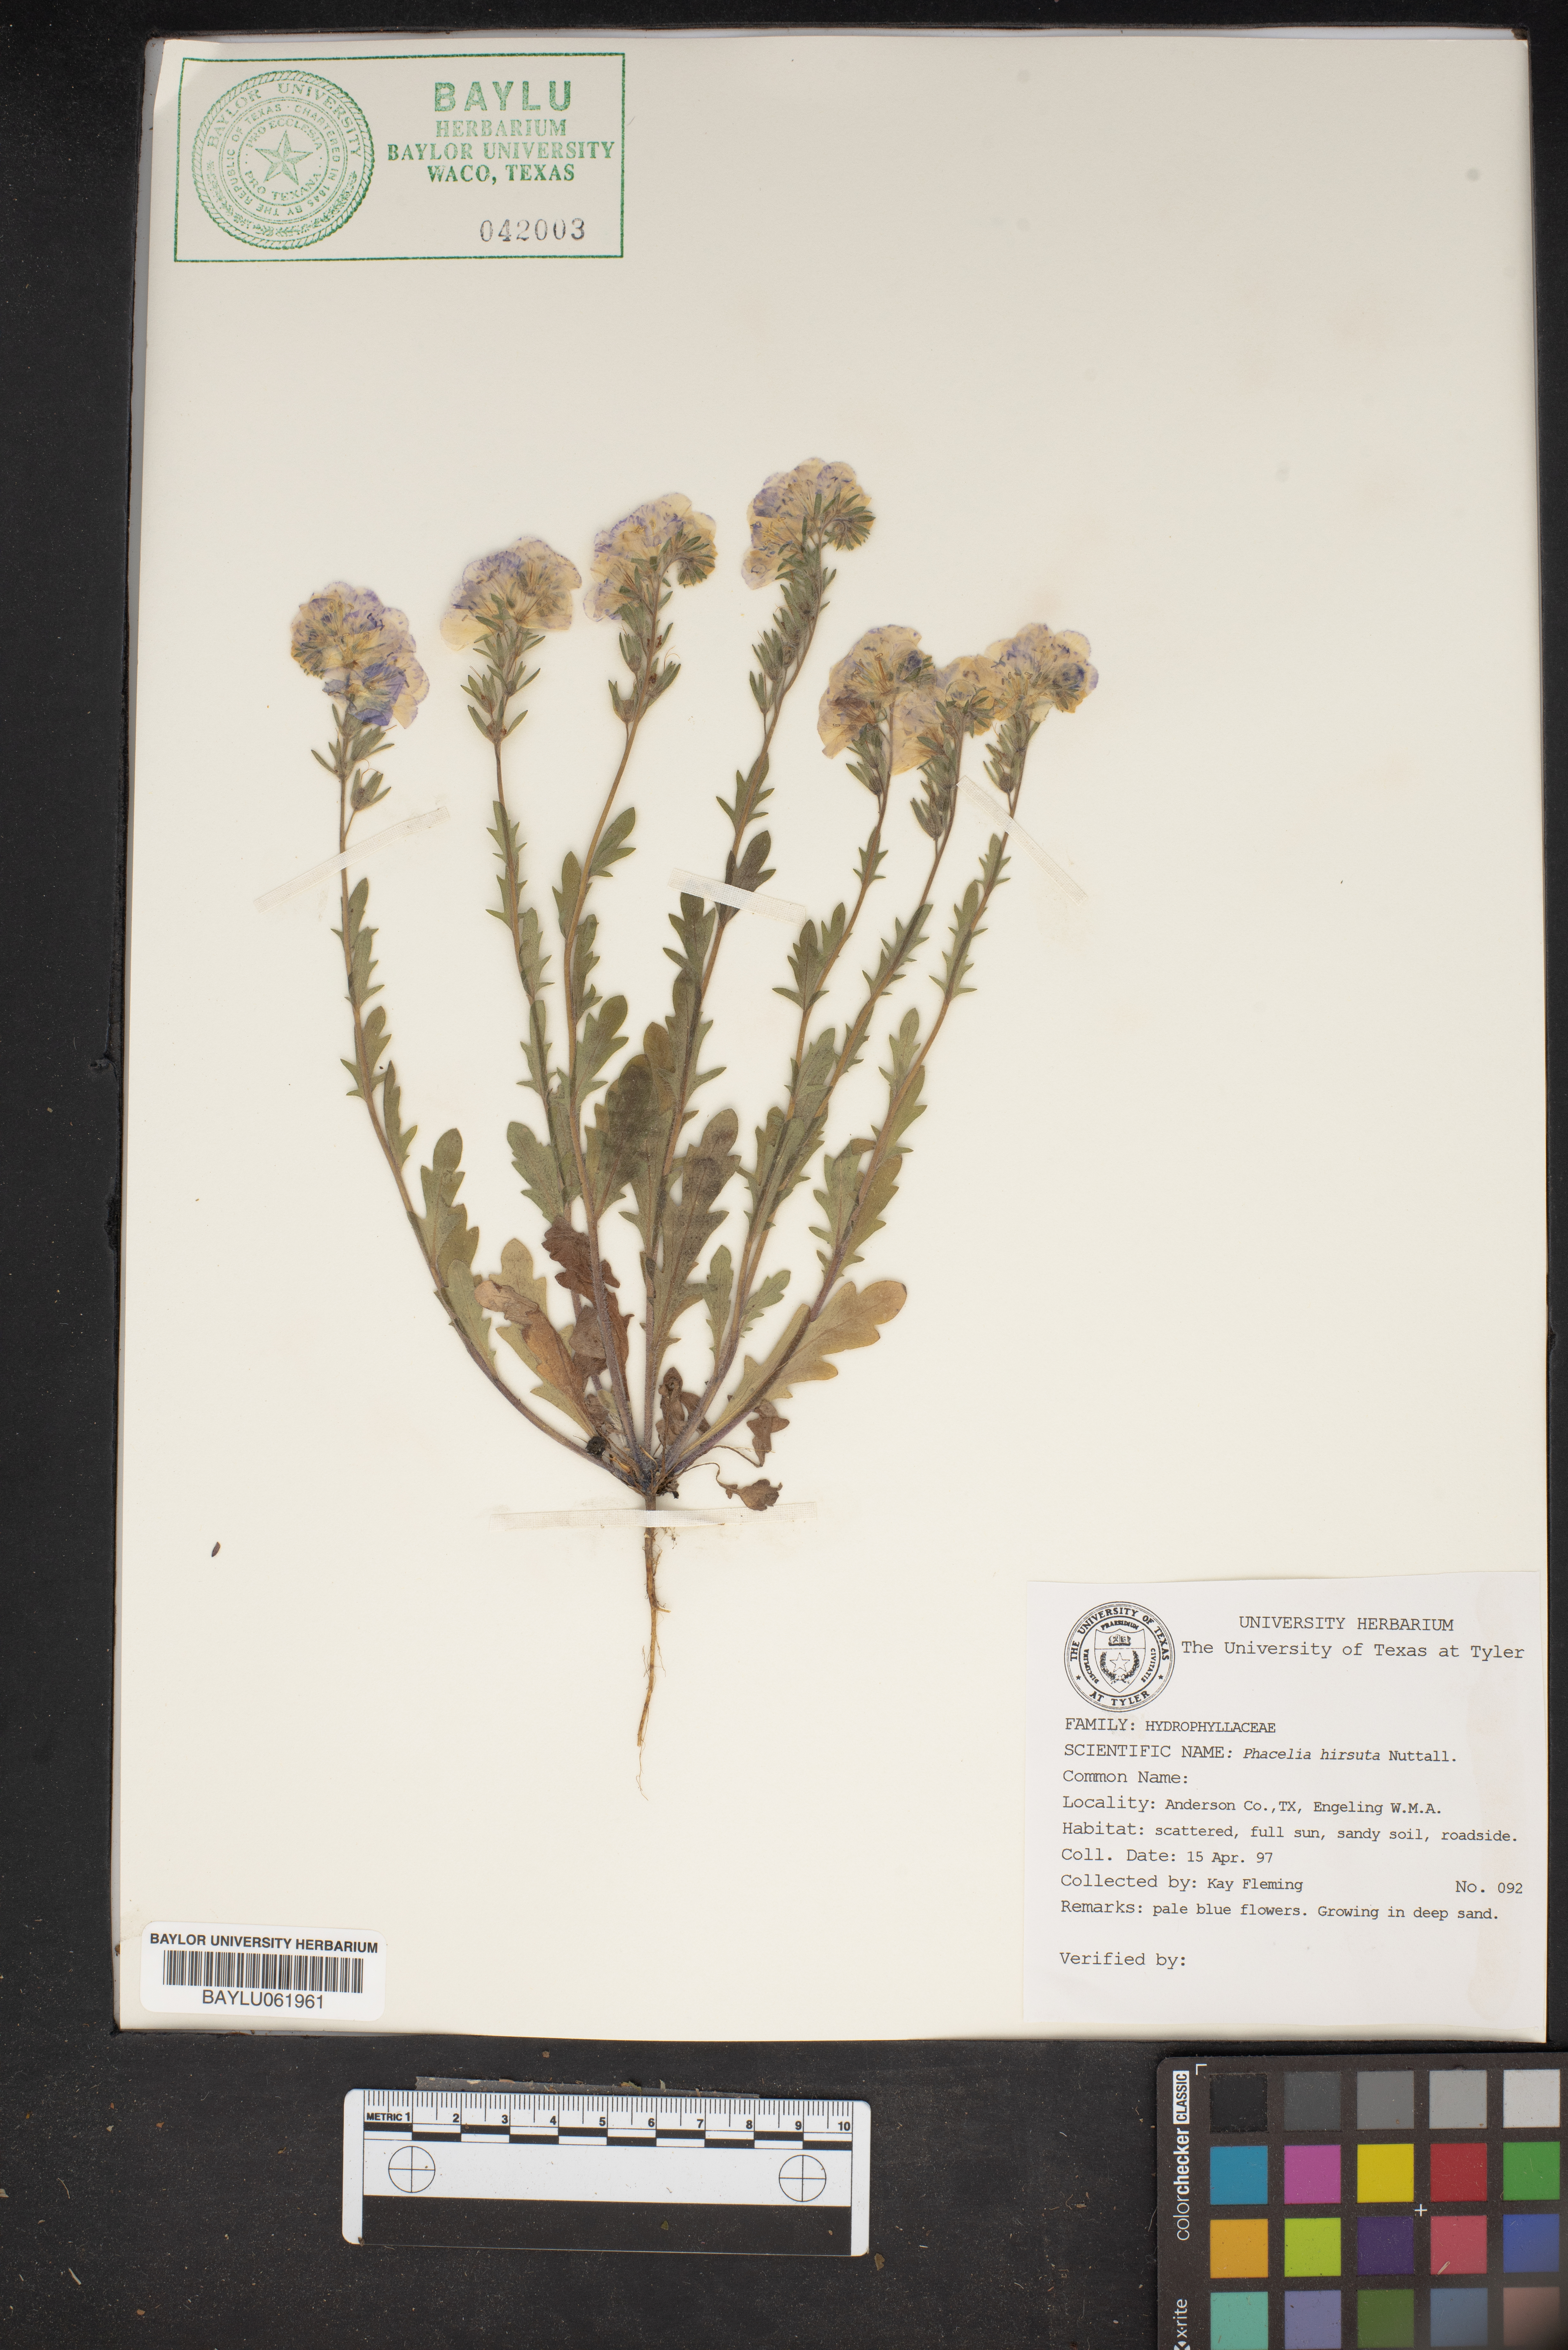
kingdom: Plantae
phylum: Tracheophyta
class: Magnoliopsida
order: Boraginales
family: Hydrophyllaceae
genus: Phacelia
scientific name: Phacelia hirsuta
